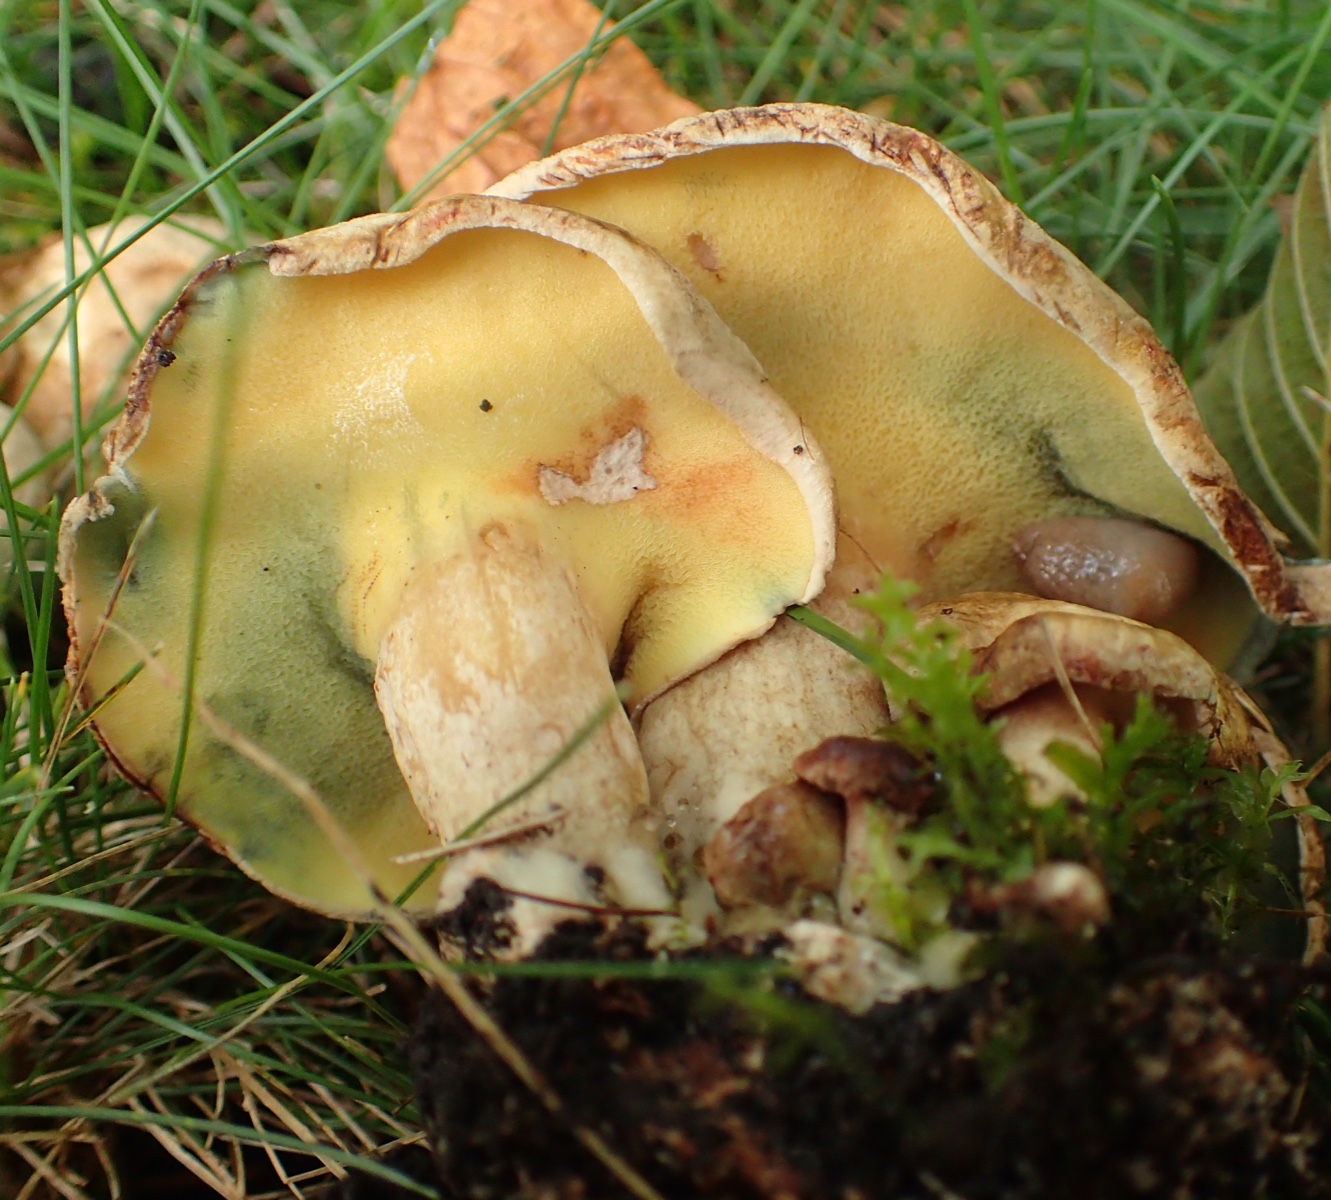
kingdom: Fungi
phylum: Basidiomycota
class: Agaricomycetes
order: Boletales
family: Paxillaceae
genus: Gyrodon
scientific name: Gyrodon lividus
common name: ellerørhat
